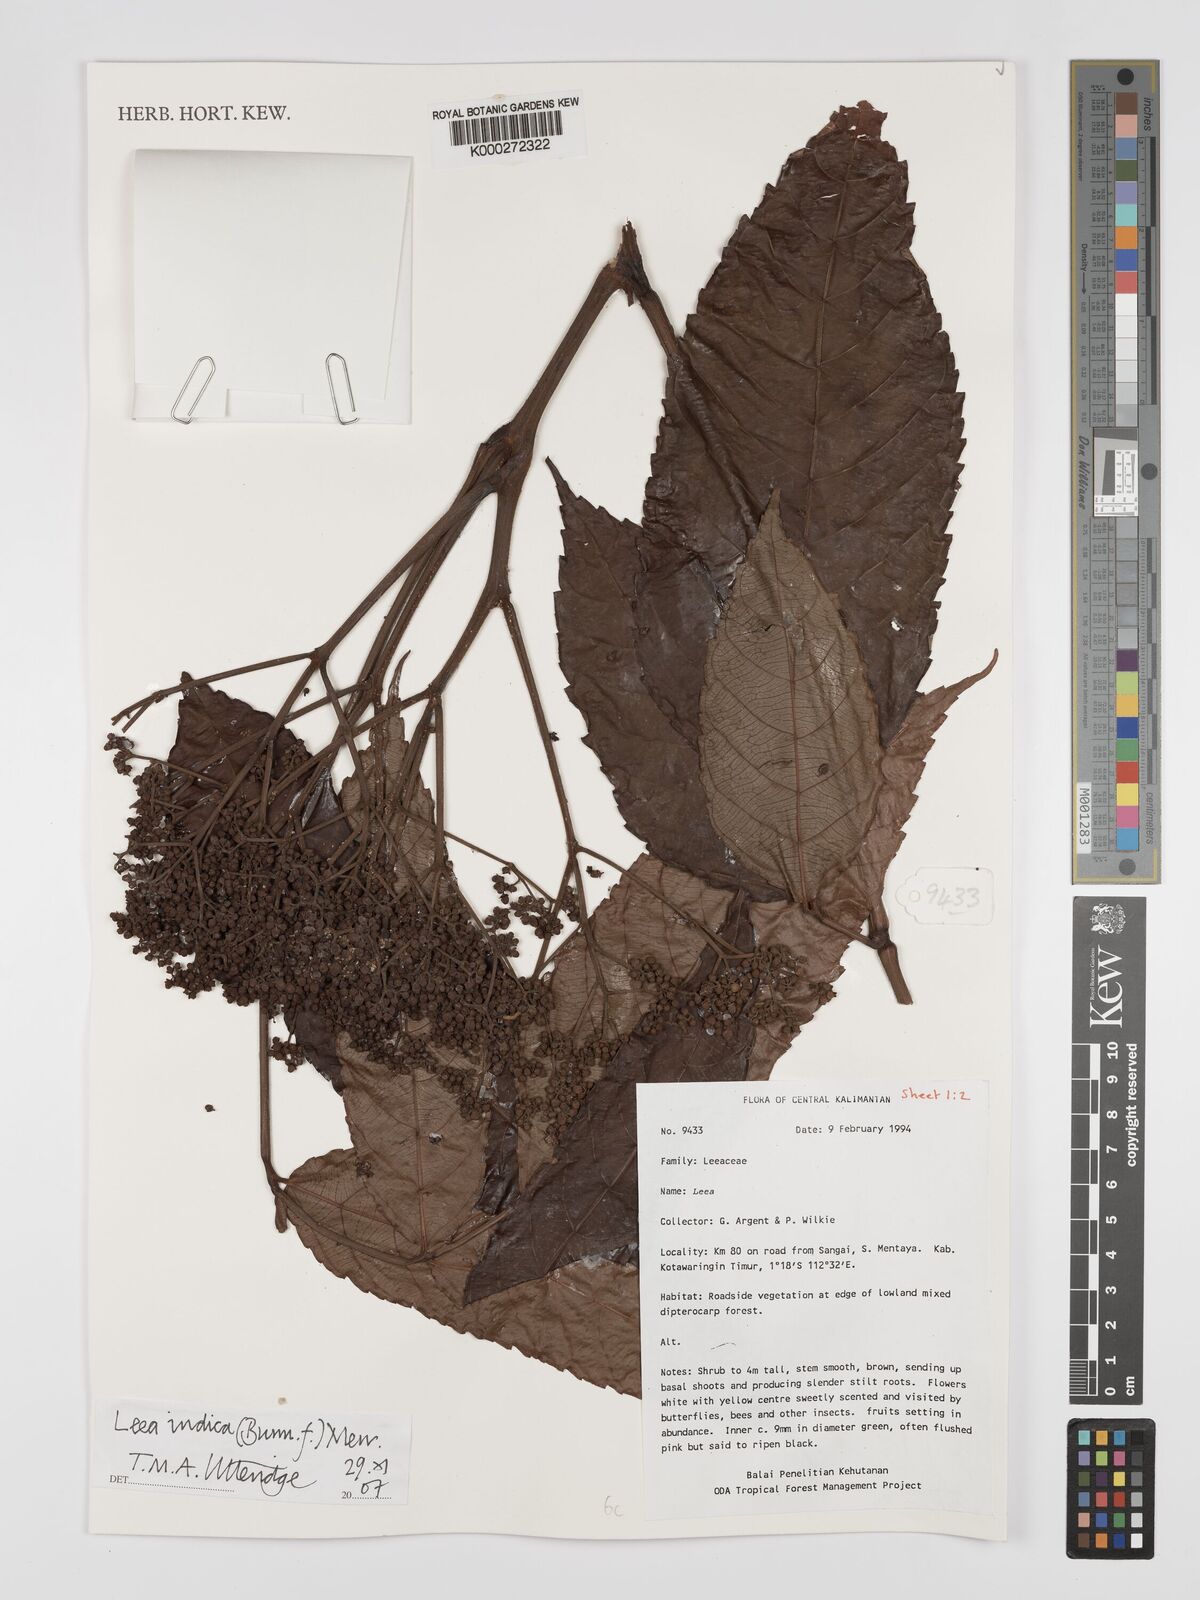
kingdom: Plantae
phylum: Tracheophyta
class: Magnoliopsida
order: Vitales
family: Vitaceae
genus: Leea
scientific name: Leea indica
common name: Bandicoot-berry
